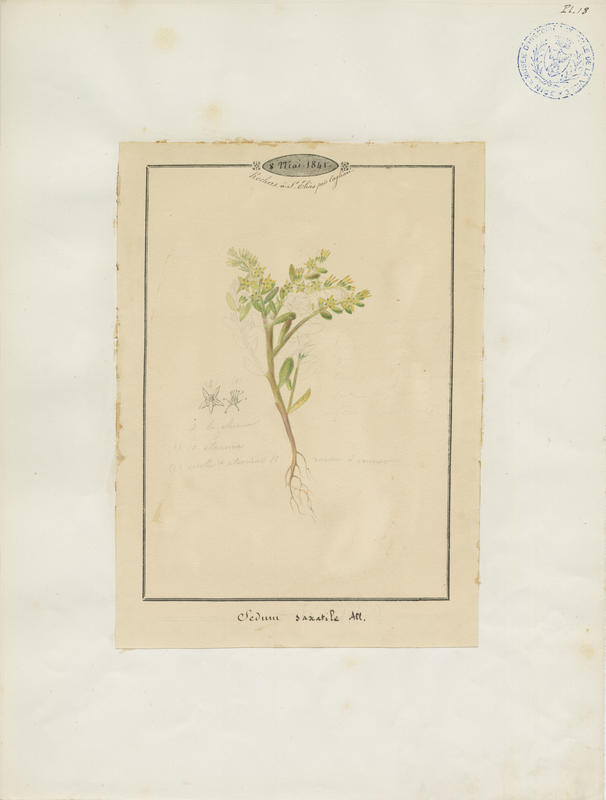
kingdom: Plantae
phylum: Tracheophyta
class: Magnoliopsida
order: Saxifragales
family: Crassulaceae
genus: Sedum
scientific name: Sedum alpestre
